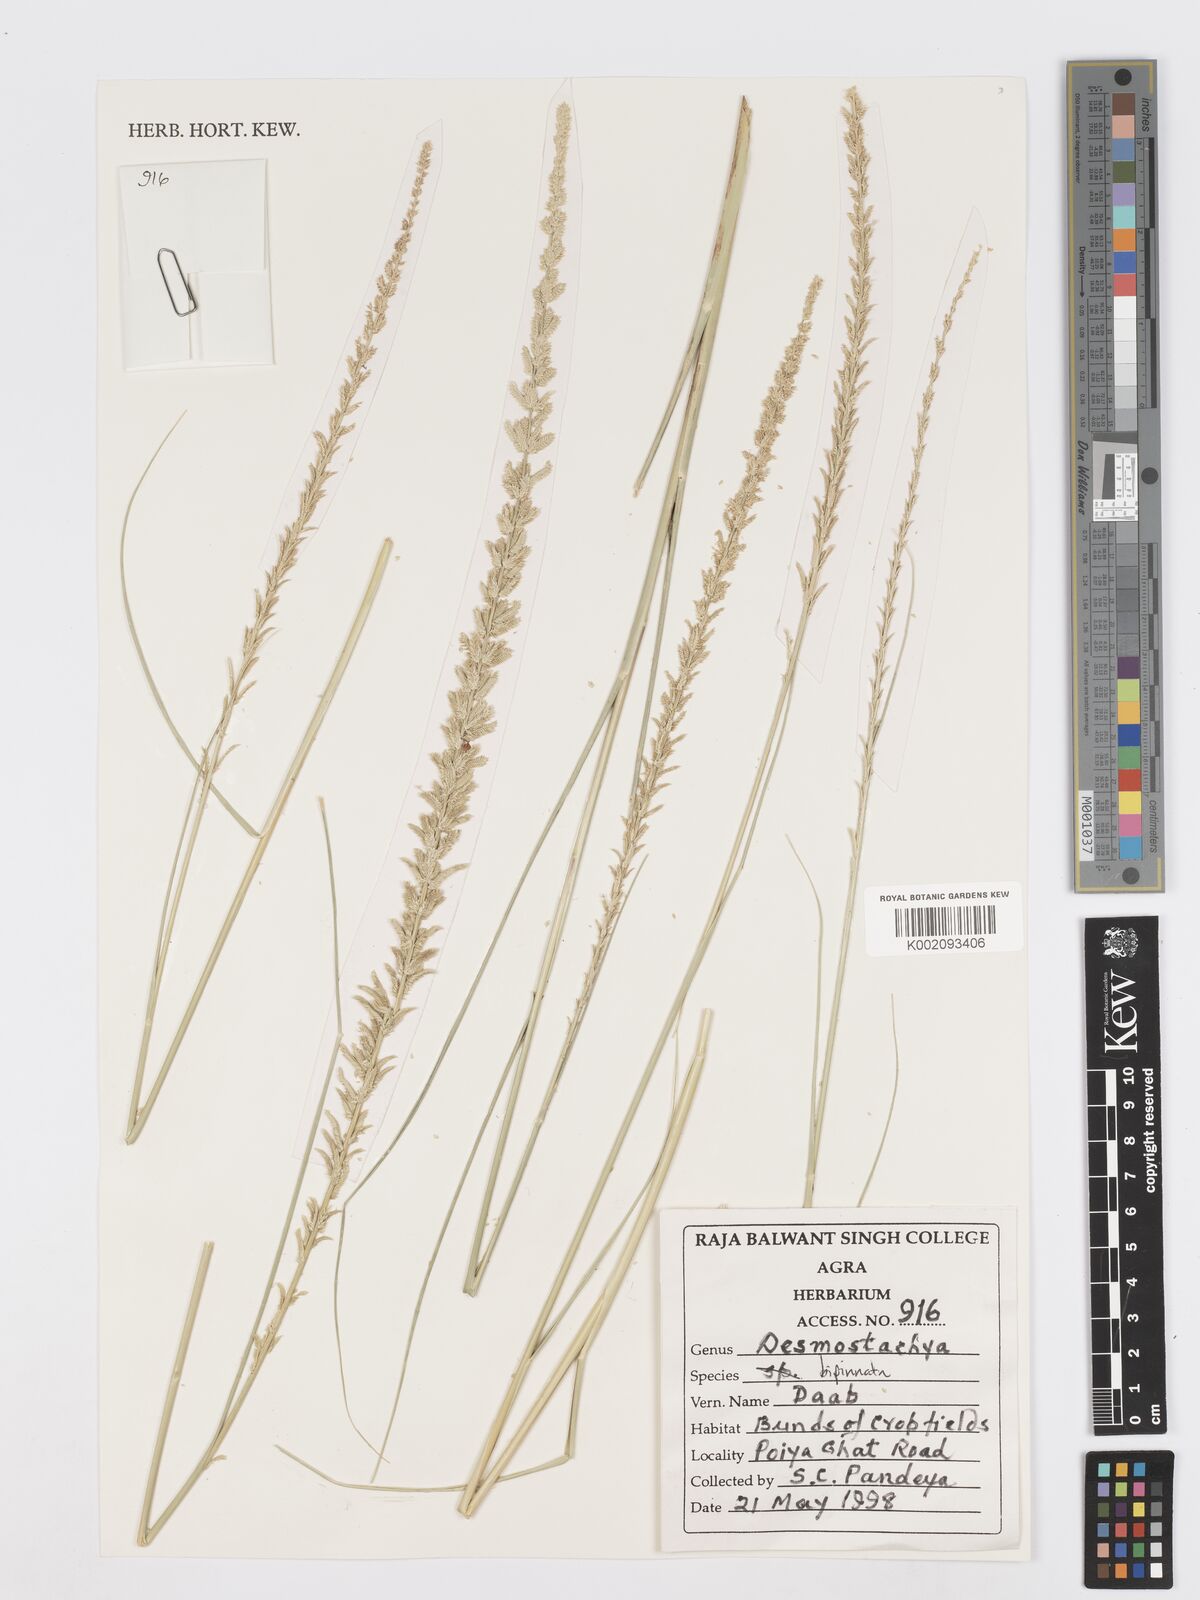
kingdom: Plantae
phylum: Tracheophyta
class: Liliopsida
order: Poales
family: Poaceae
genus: Desmostachya
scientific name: Desmostachya bipinnata
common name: Crowfoot grass
